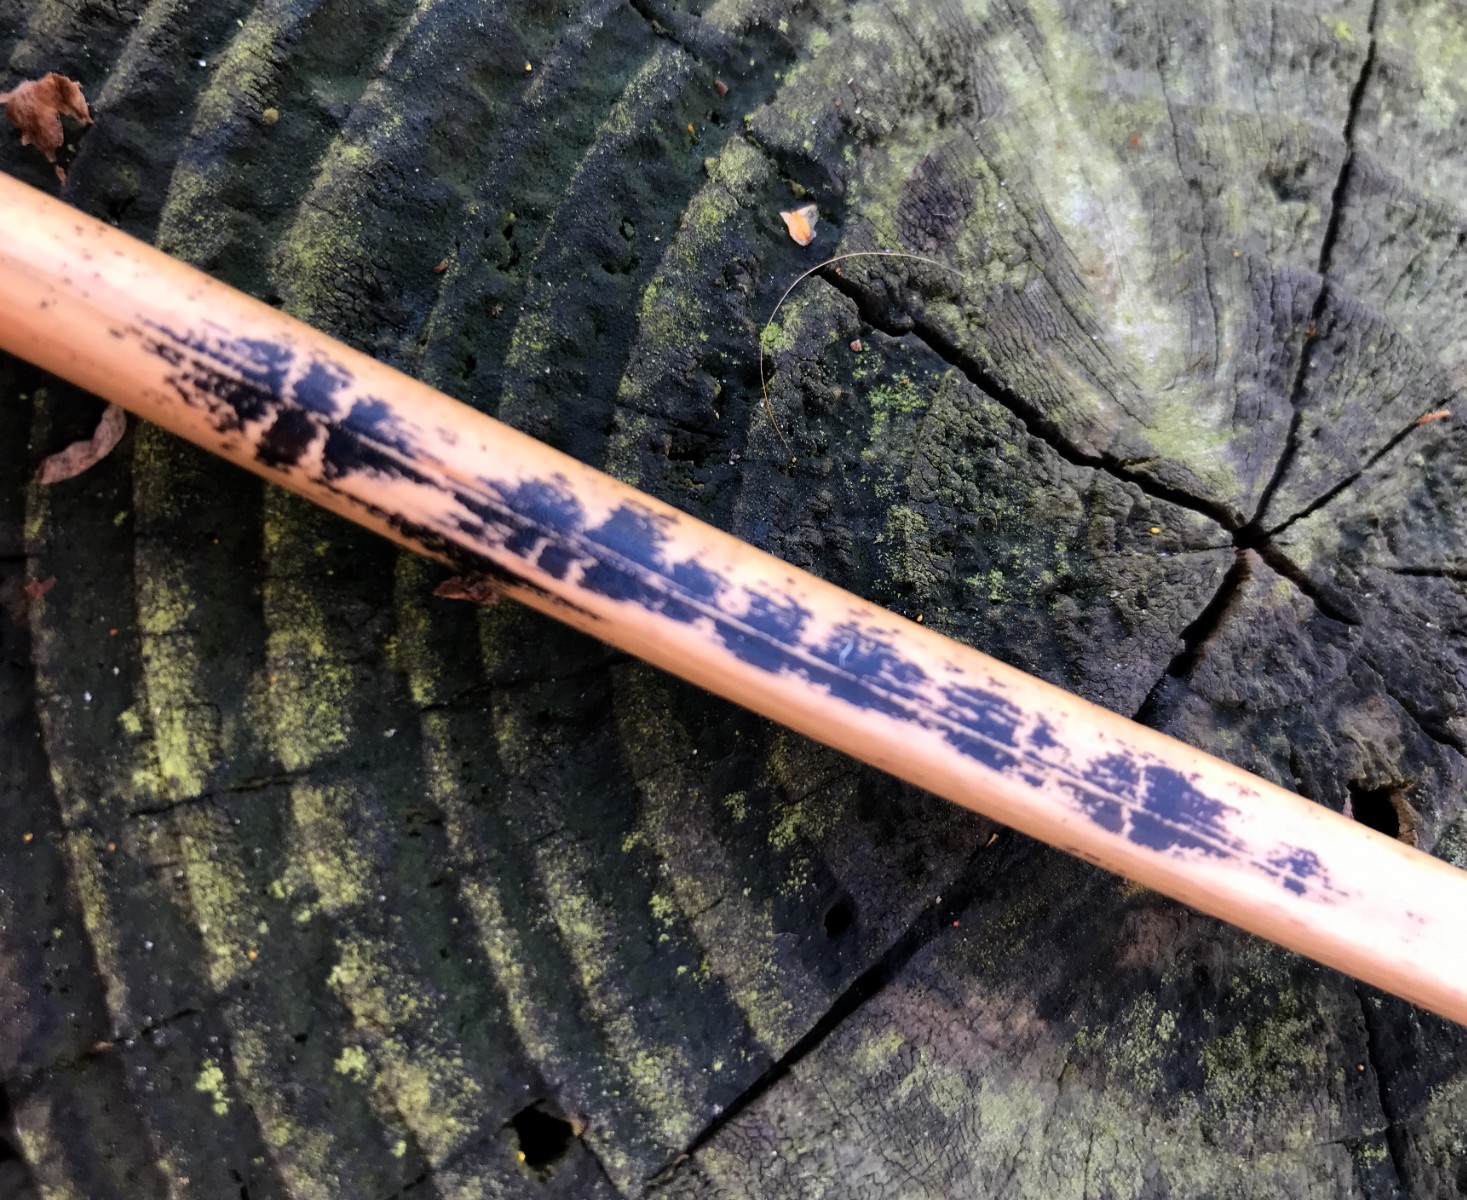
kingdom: Fungi
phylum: Ascomycota
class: Dothideomycetes
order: Pleosporales
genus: Rhopographus
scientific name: Rhopographus filicinus
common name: Bracken map
